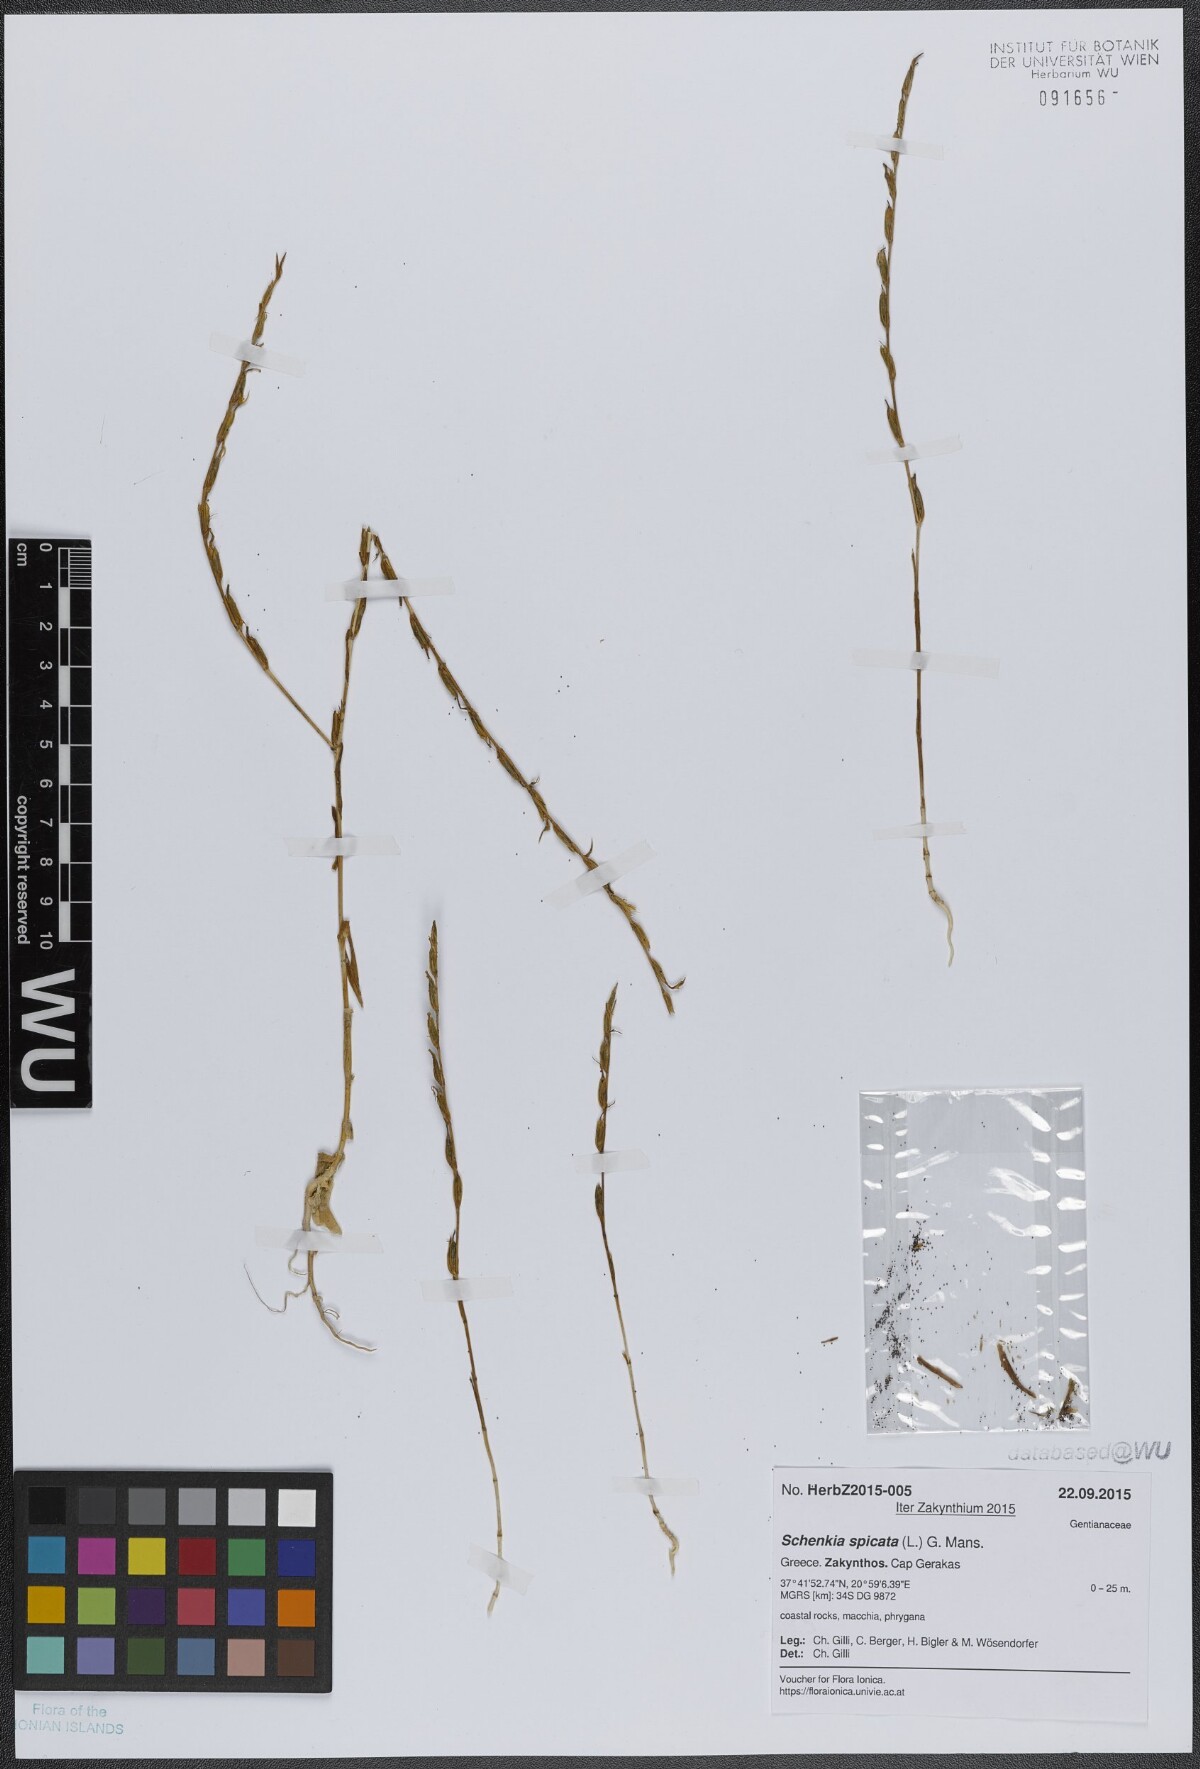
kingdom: Plantae
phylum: Tracheophyta
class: Magnoliopsida
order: Gentianales
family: Gentianaceae
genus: Schenkia
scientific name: Schenkia spicata
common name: Spiked centaury
